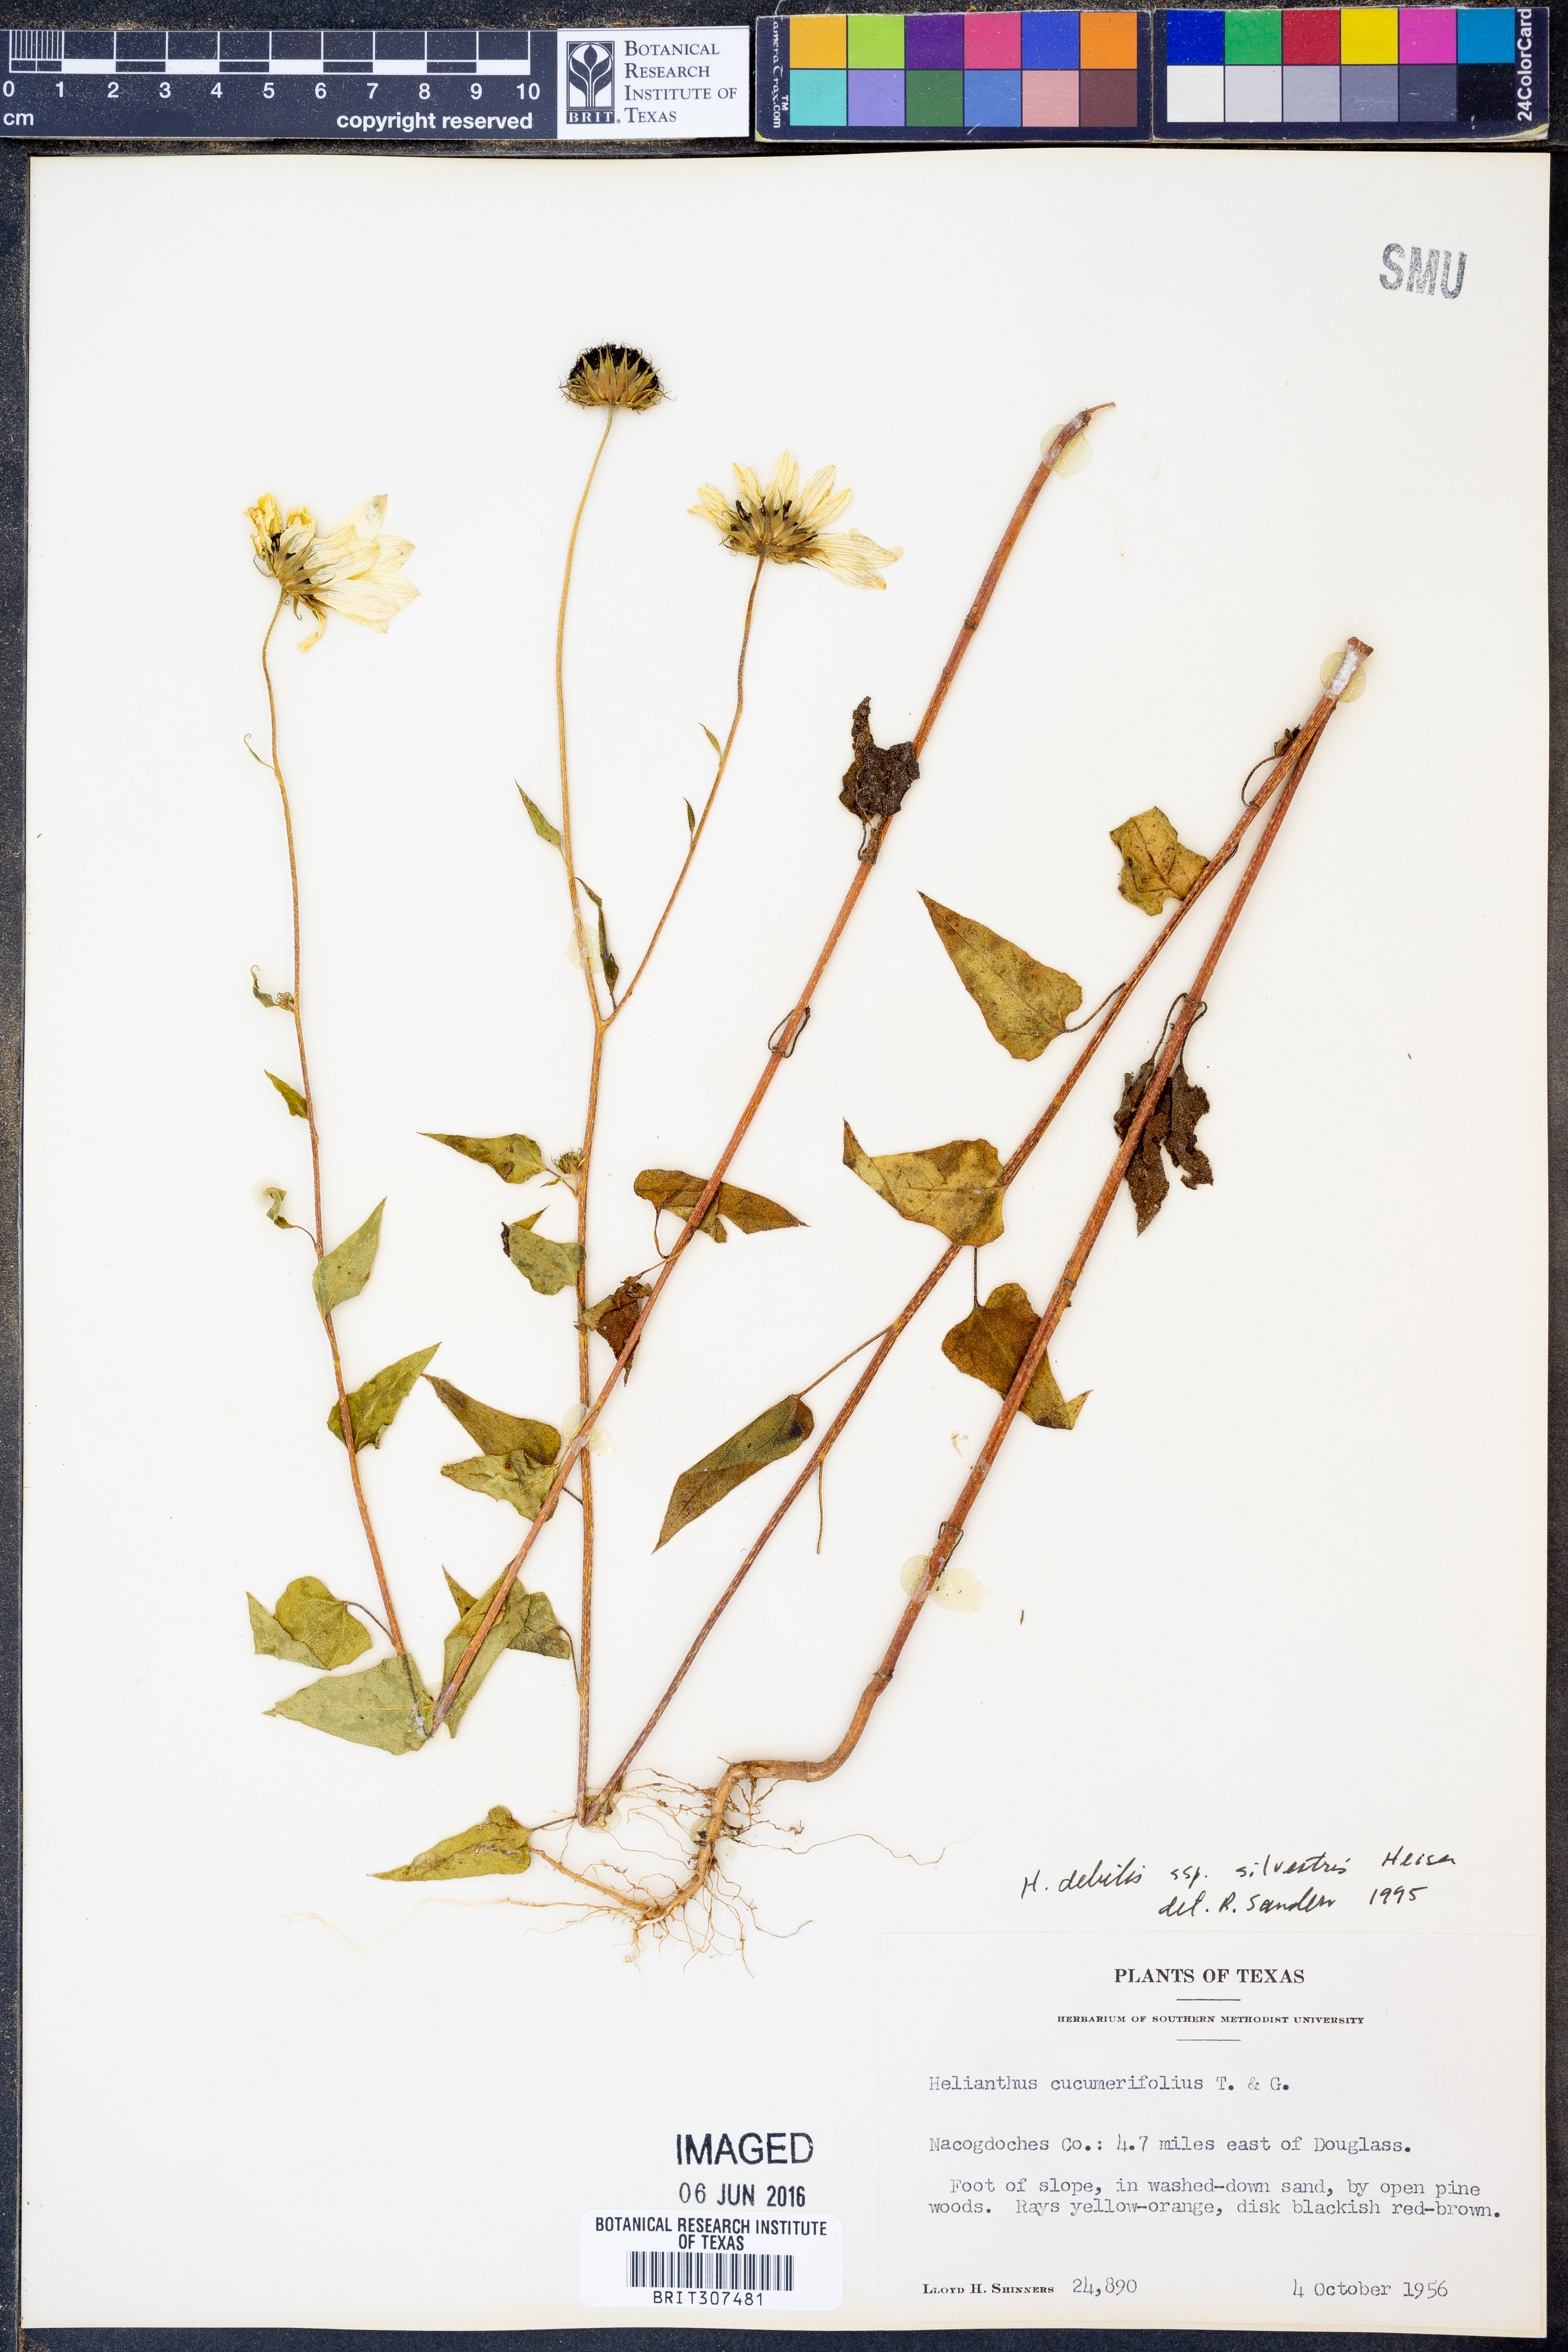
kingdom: Plantae
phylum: Tracheophyta
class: Magnoliopsida
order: Asterales
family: Asteraceae
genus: Helianthus
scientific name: Helianthus debilis
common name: Weak sunflower
